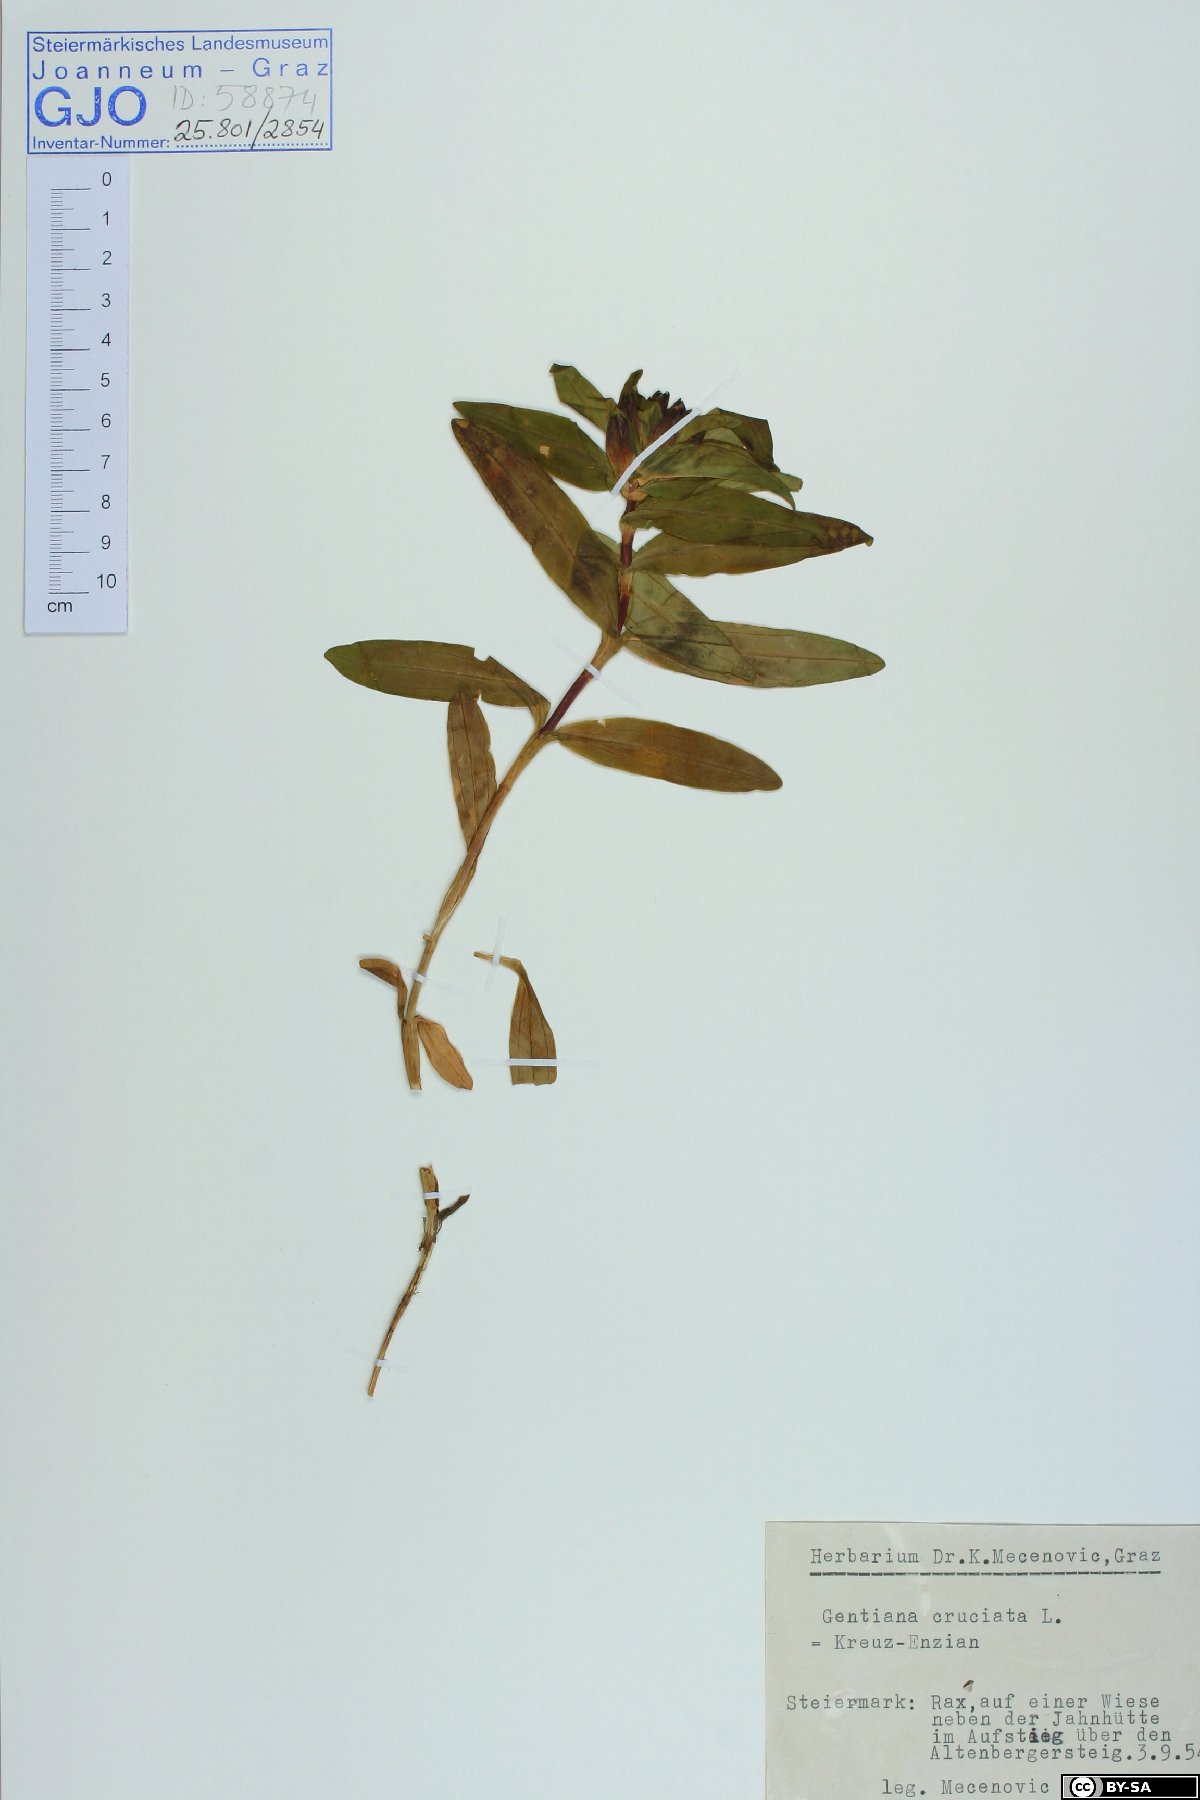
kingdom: Plantae
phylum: Tracheophyta
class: Magnoliopsida
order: Gentianales
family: Gentianaceae
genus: Gentiana
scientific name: Gentiana cruciata
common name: Cross gentian
